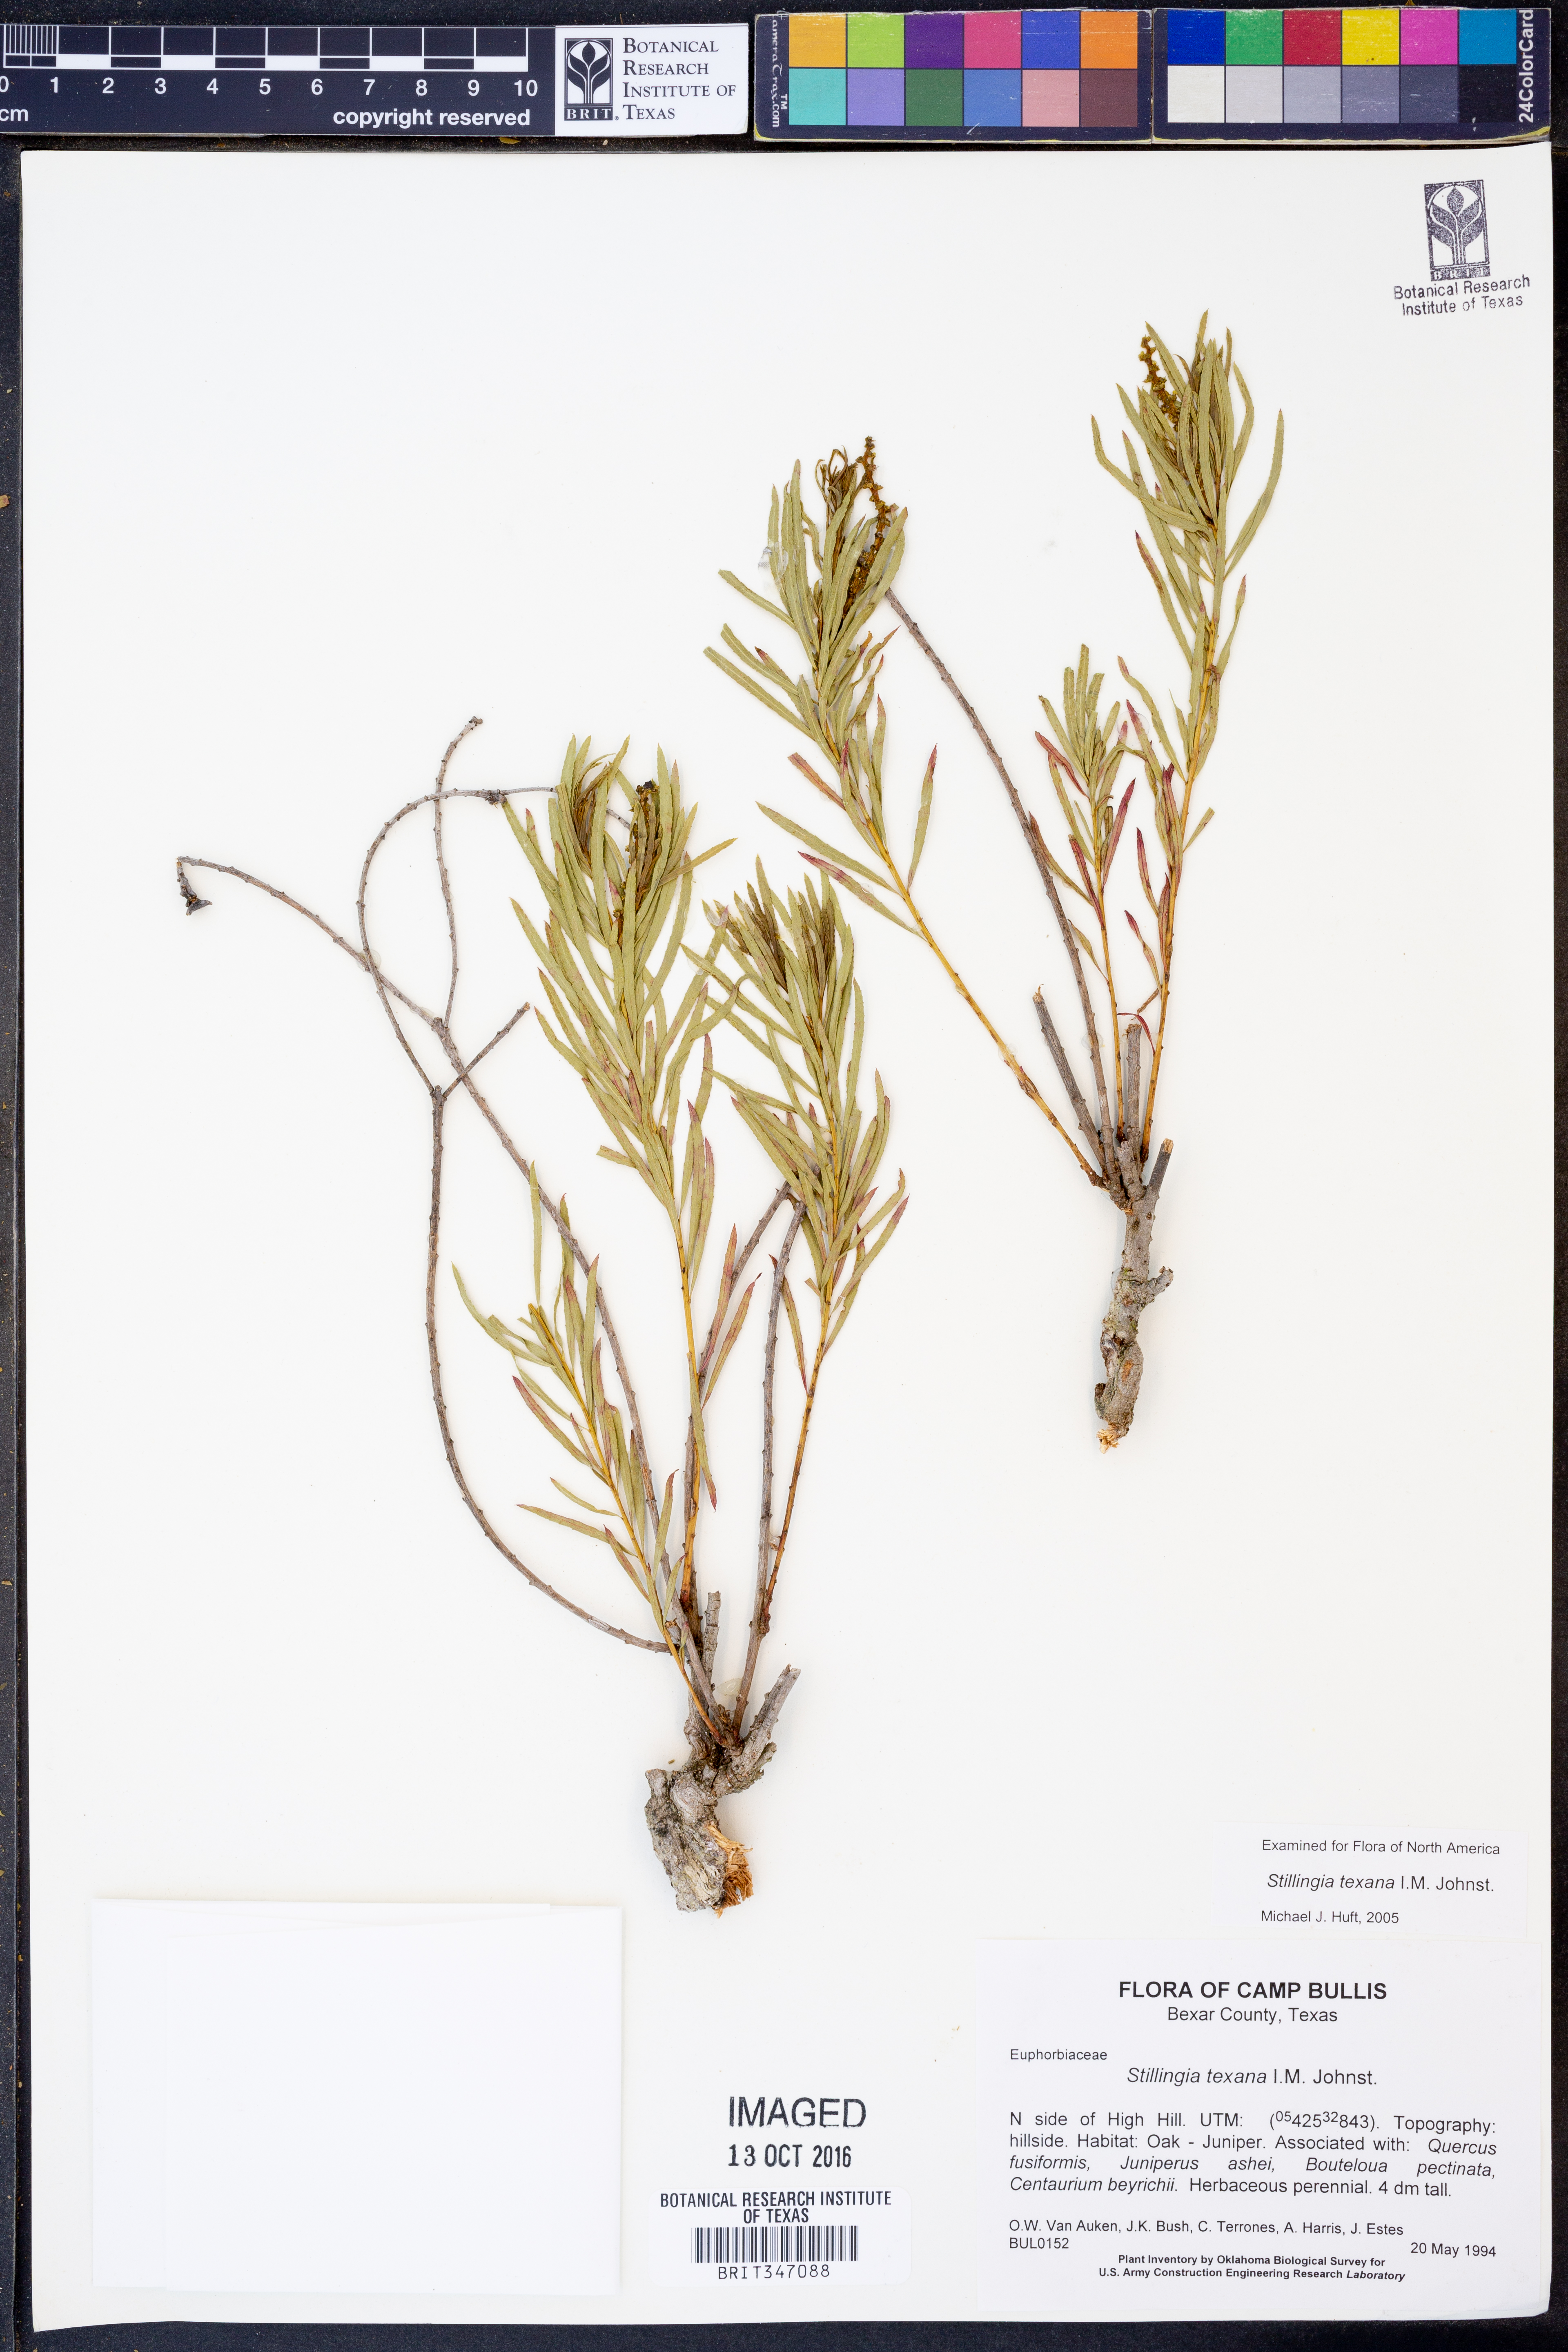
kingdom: Plantae
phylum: Tracheophyta
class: Magnoliopsida
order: Malpighiales
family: Euphorbiaceae
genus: Stillingia
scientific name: Stillingia texana
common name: Texas stillingia
